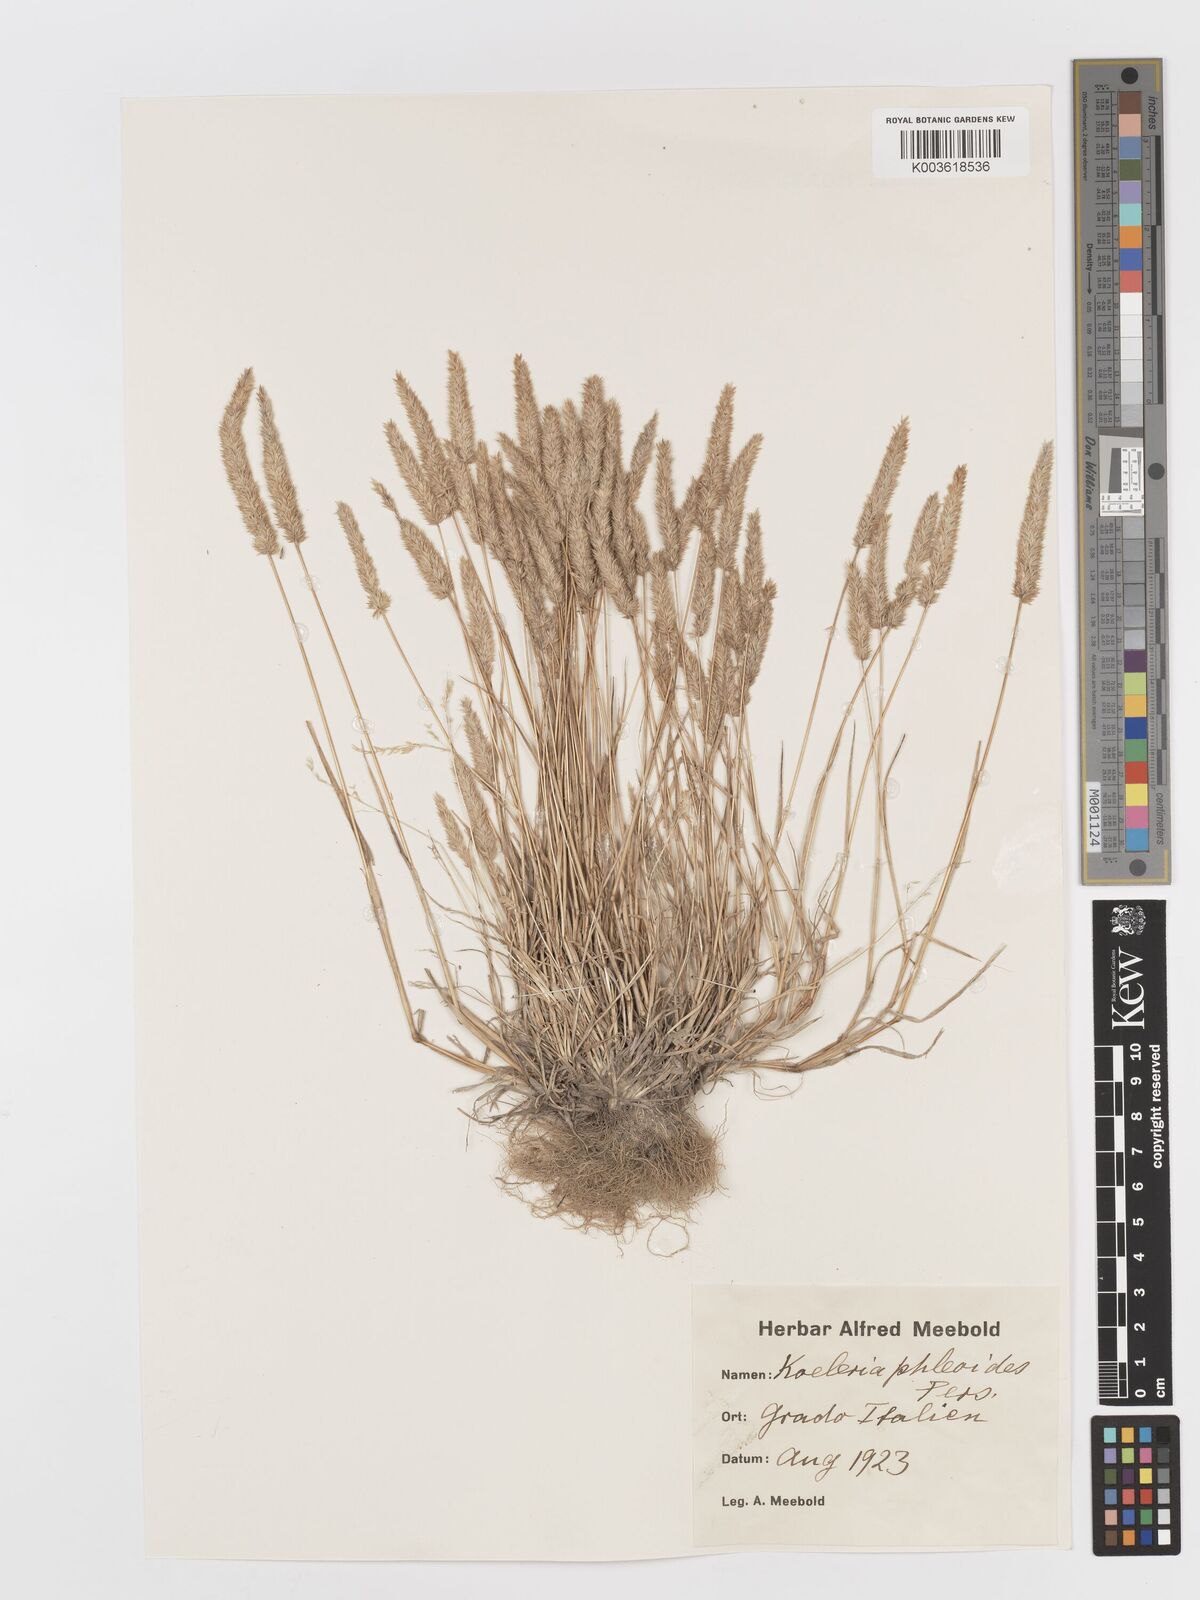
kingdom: Plantae
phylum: Tracheophyta
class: Liliopsida
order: Poales
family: Poaceae
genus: Rostraria
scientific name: Rostraria cristata
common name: Mediterranean hair-grass
